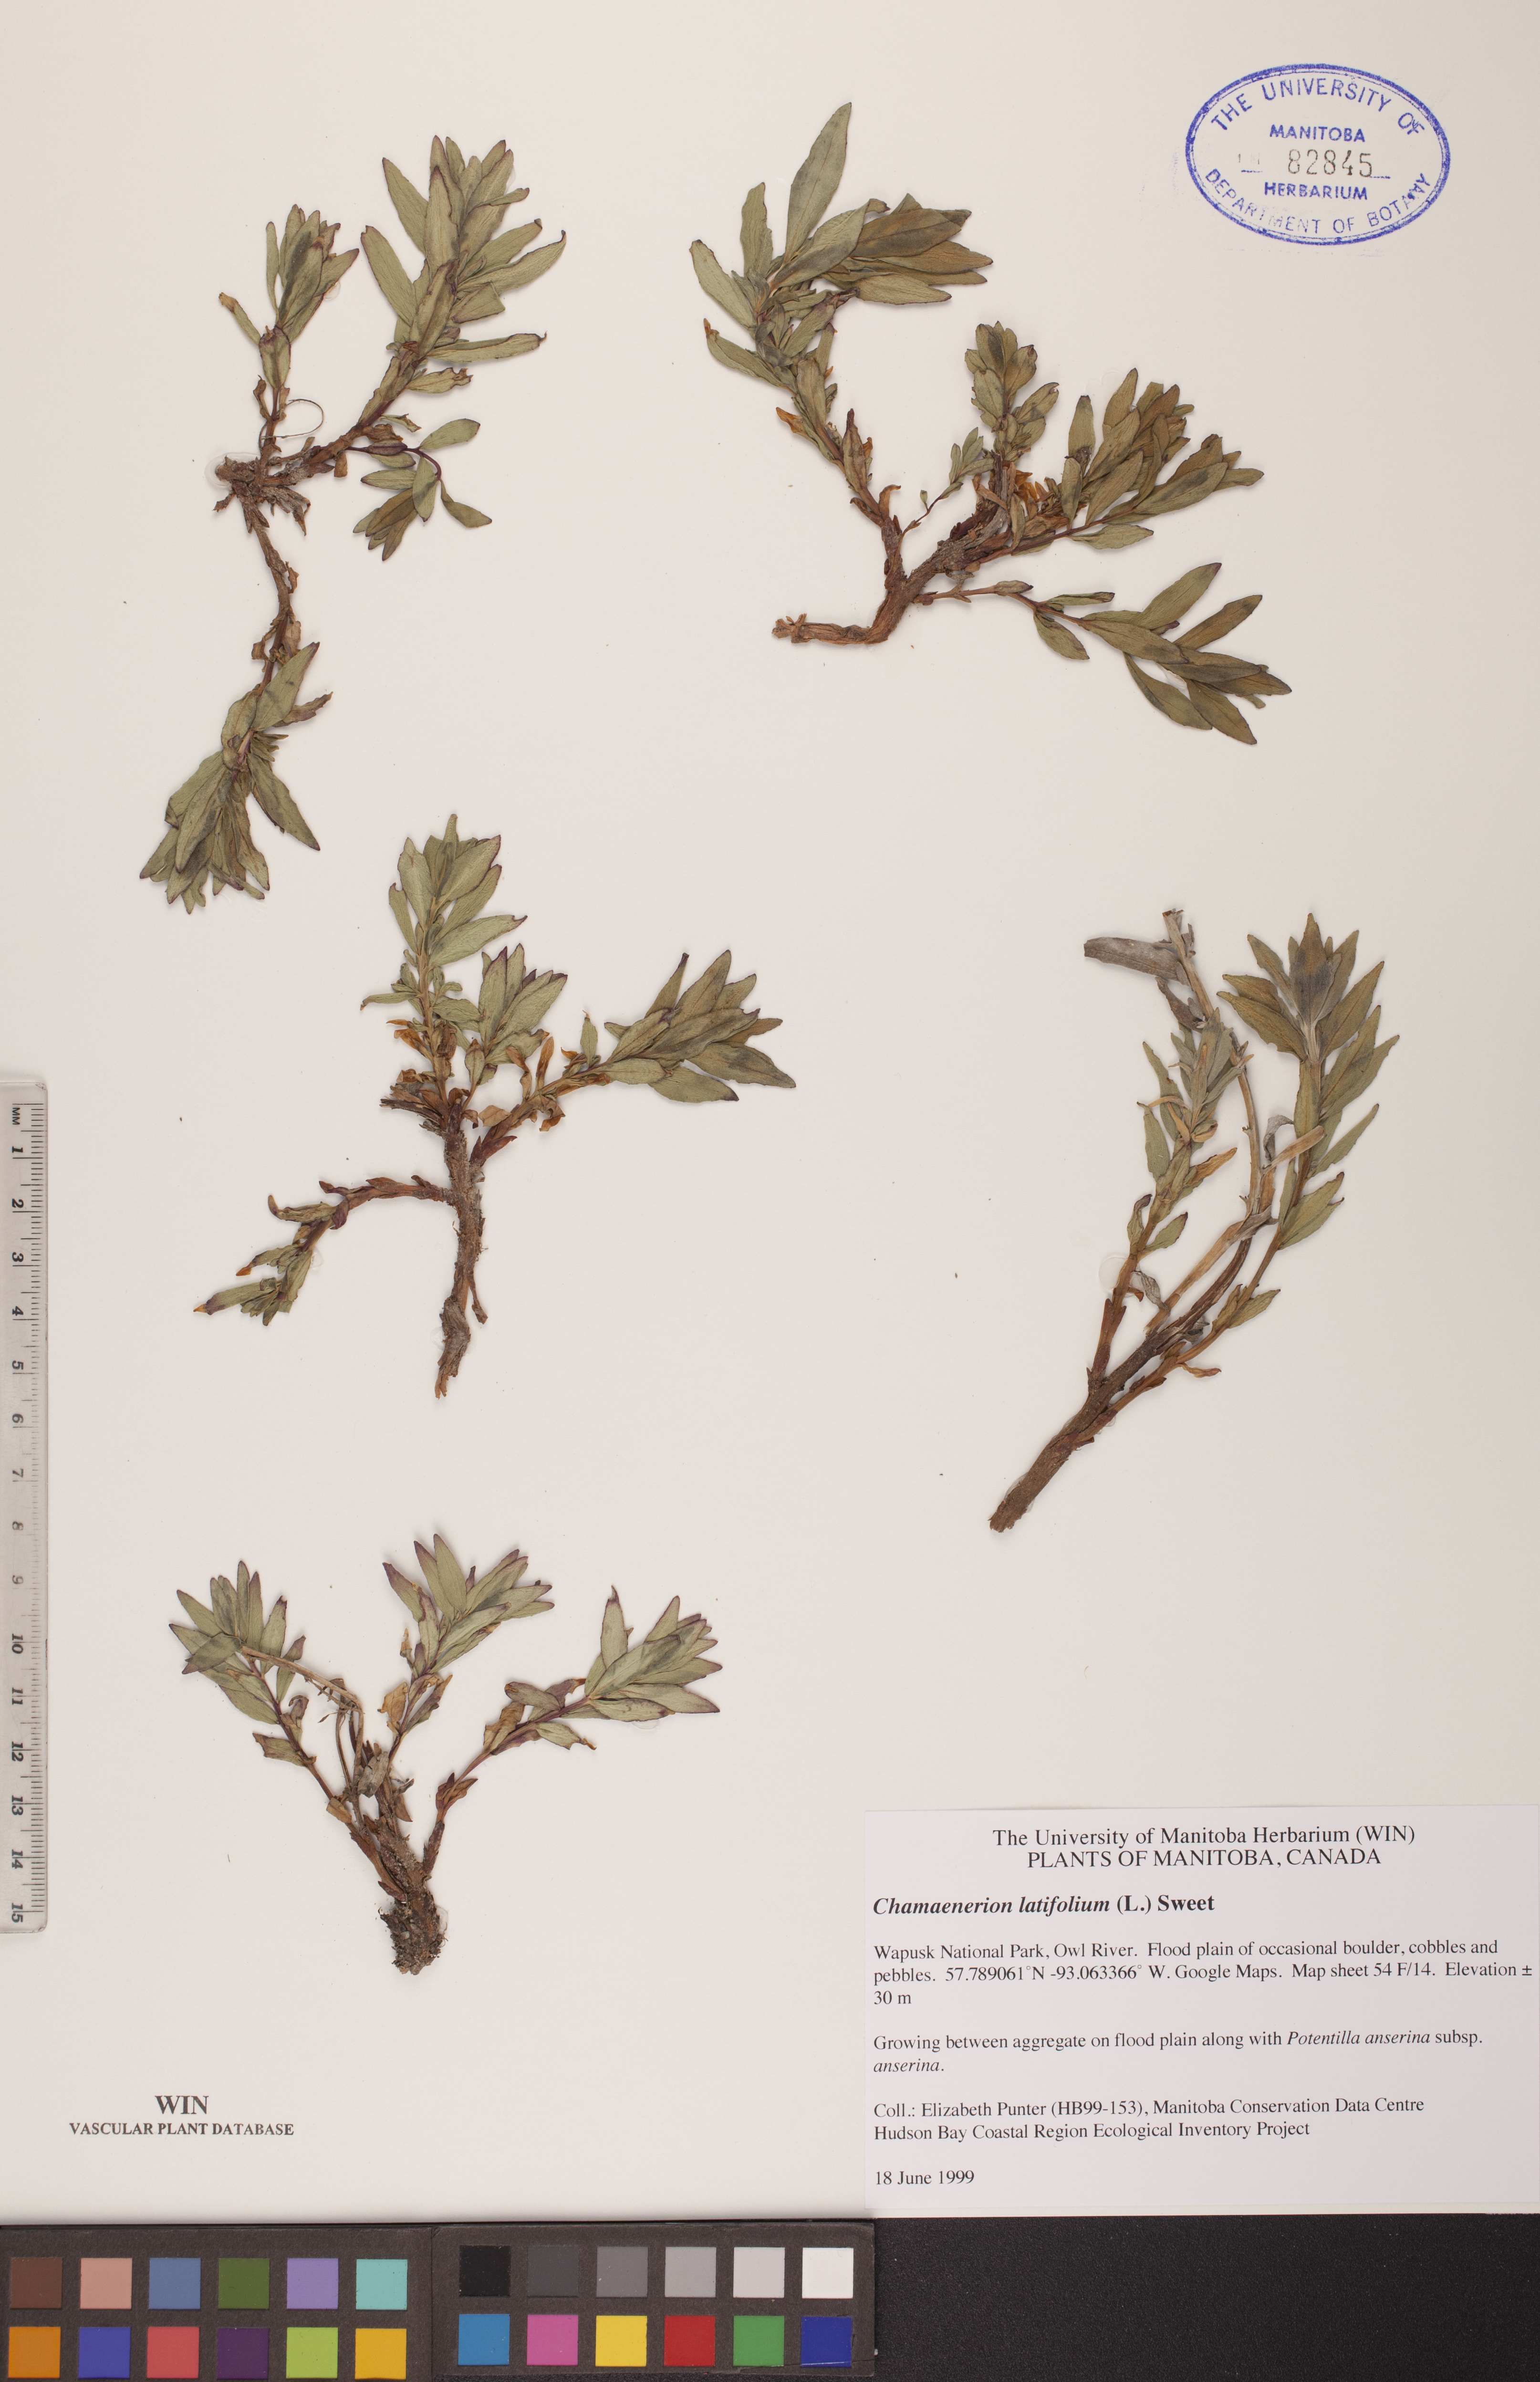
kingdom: Plantae
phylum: Tracheophyta
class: Magnoliopsida
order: Myrtales
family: Onagraceae
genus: Chamaenerion
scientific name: Chamaenerion latifolium
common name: Dwarf fireweed
